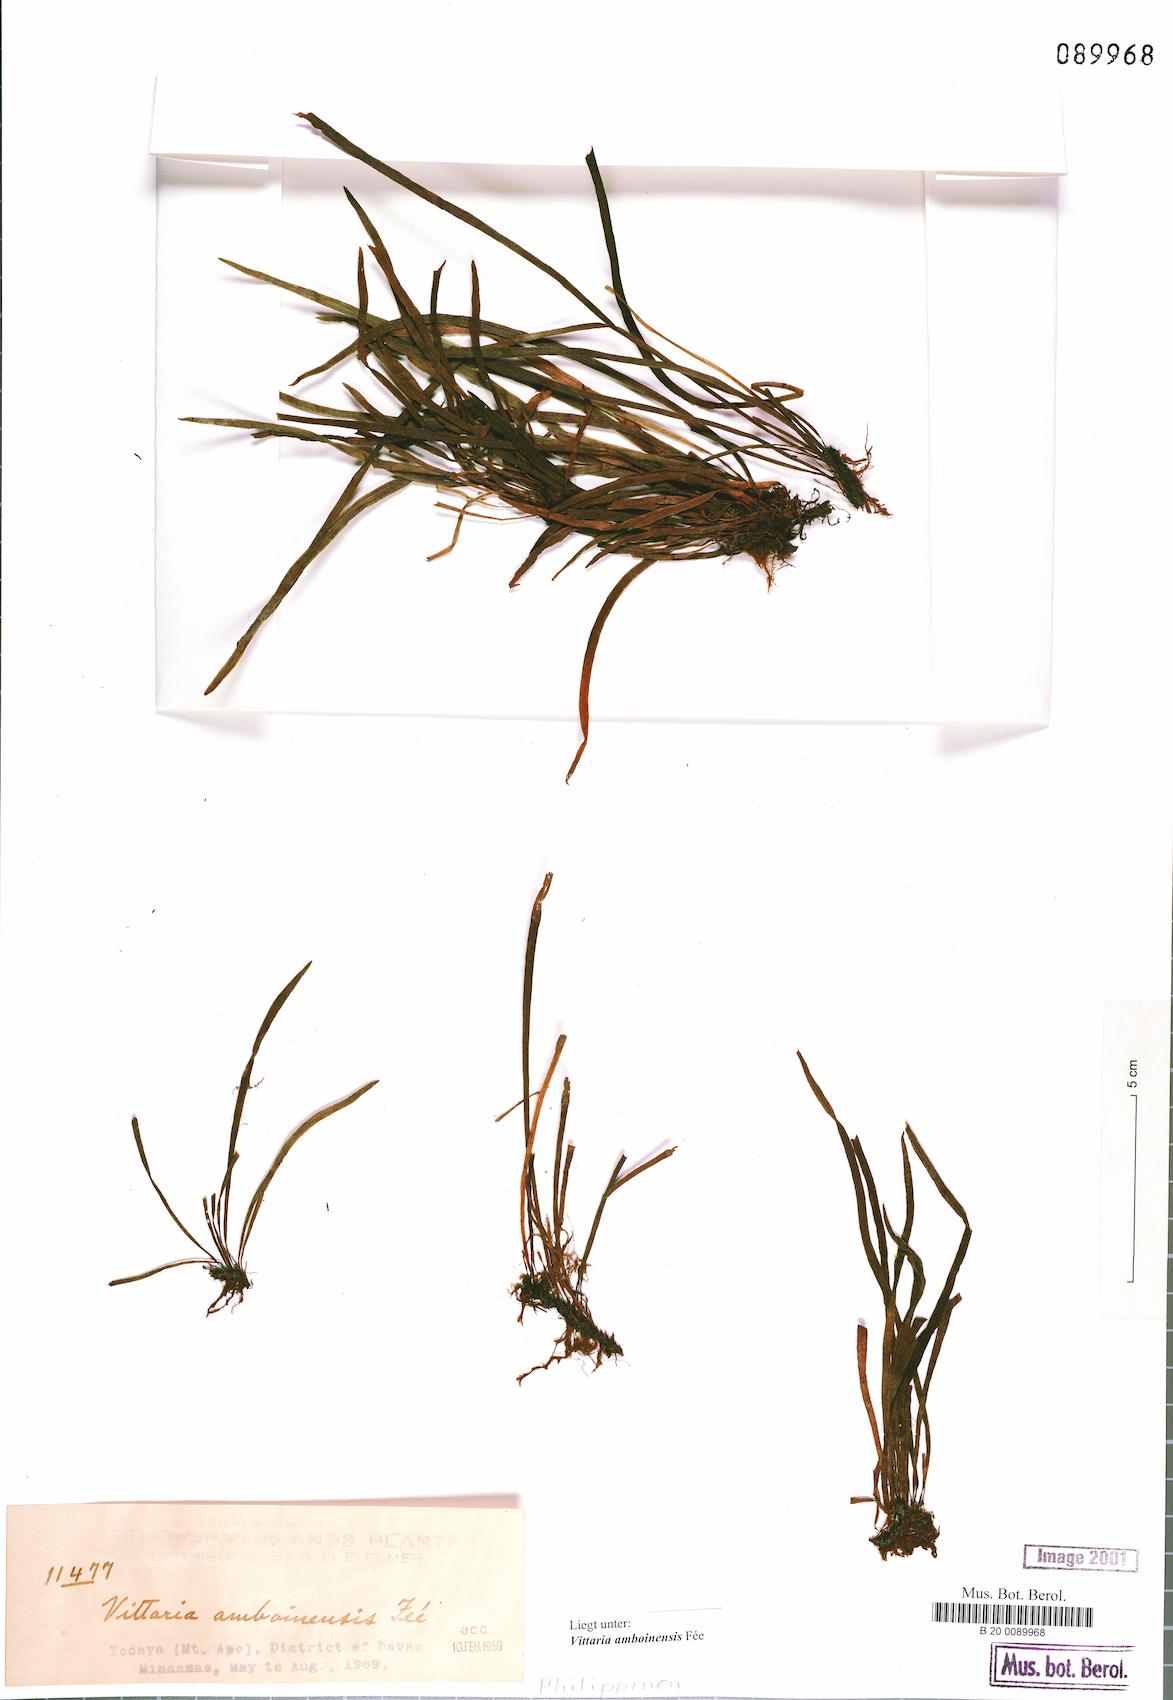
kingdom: Plantae
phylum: Tracheophyta
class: Polypodiopsida
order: Polypodiales
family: Pteridaceae
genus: Haplopteris
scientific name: Haplopteris mindanaoensis
